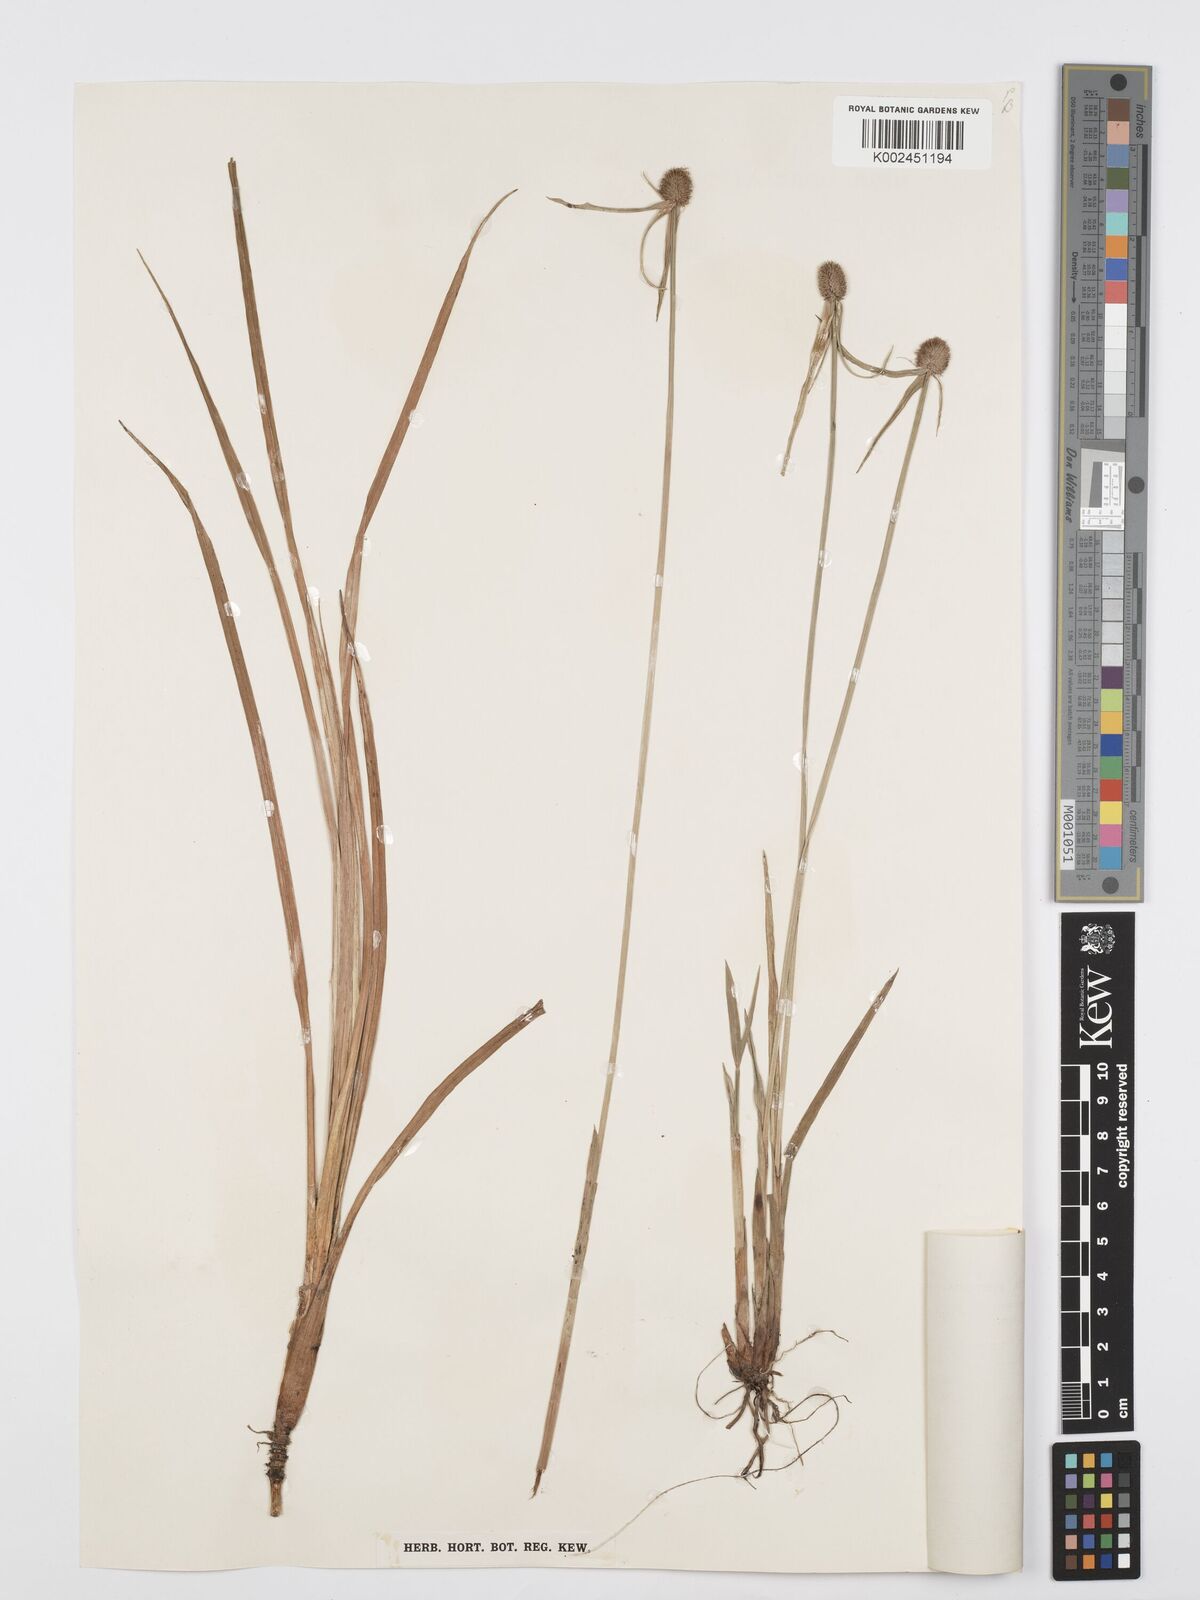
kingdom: Plantae
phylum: Tracheophyta
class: Liliopsida
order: Poales
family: Cyperaceae
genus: Cyperus
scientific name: Cyperus melanospermus
